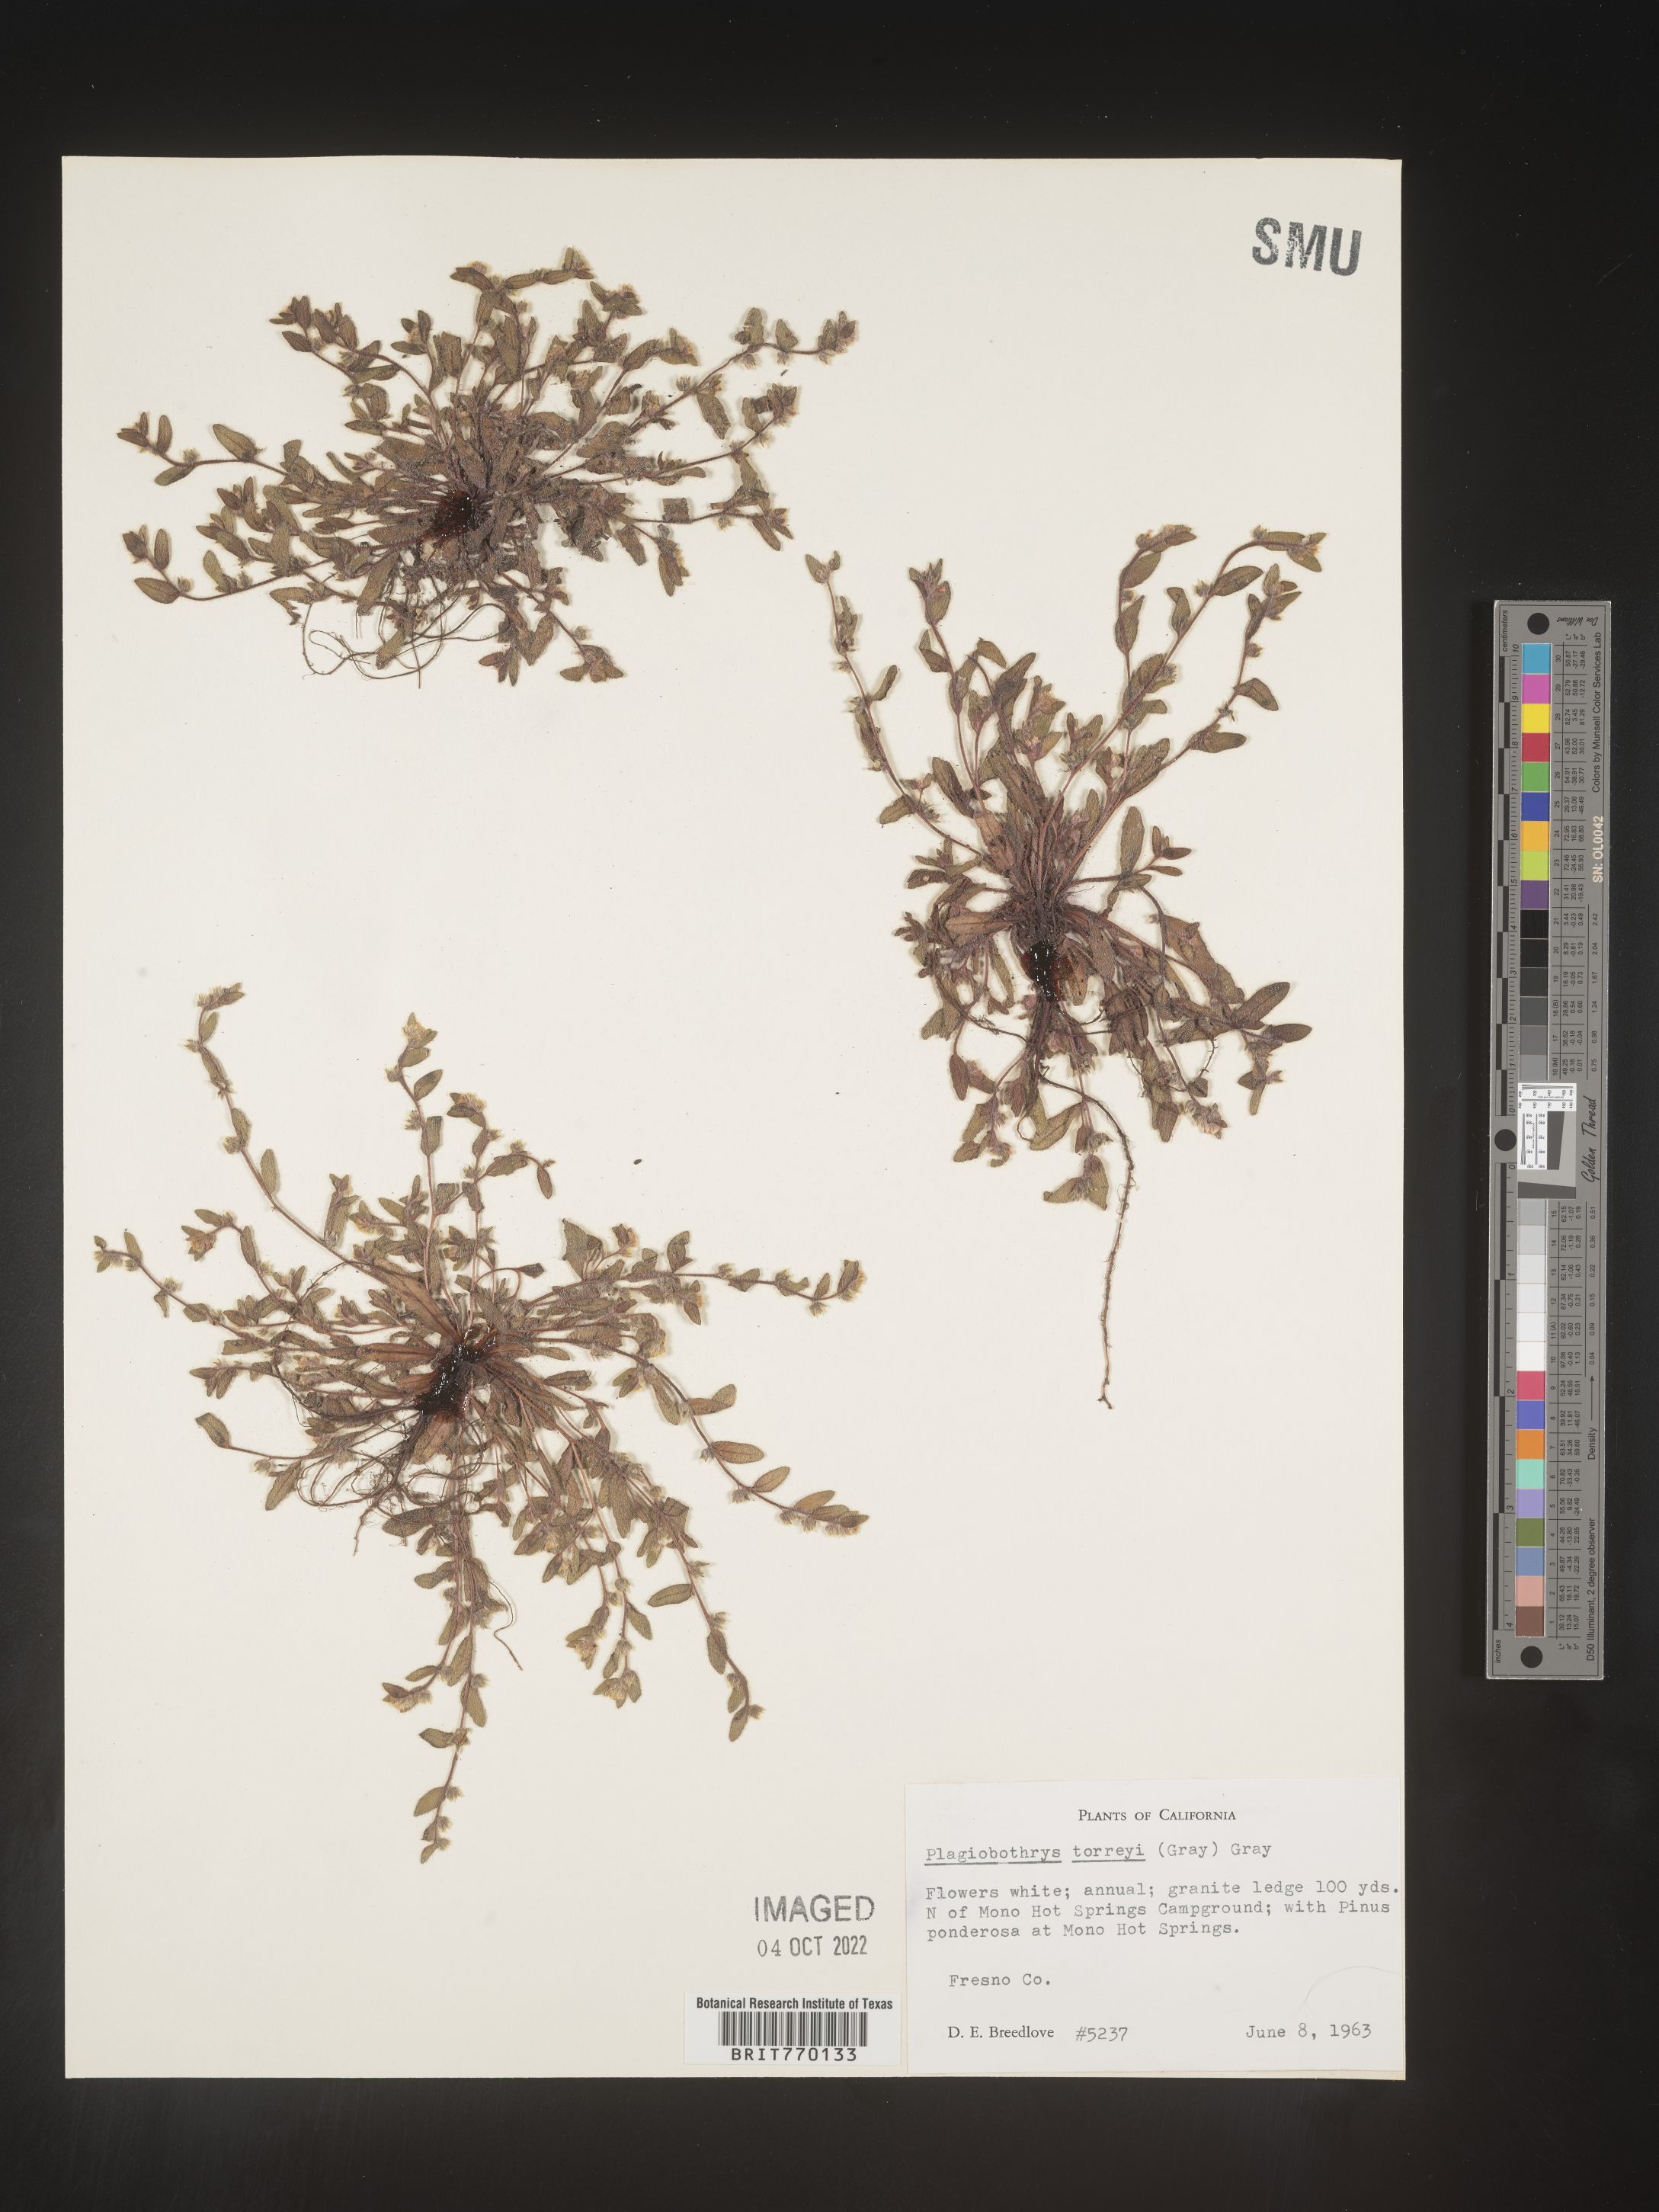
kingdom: Plantae
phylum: Tracheophyta
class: Magnoliopsida
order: Boraginales
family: Boraginaceae
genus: Plagiobothrys
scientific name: Plagiobothrys
